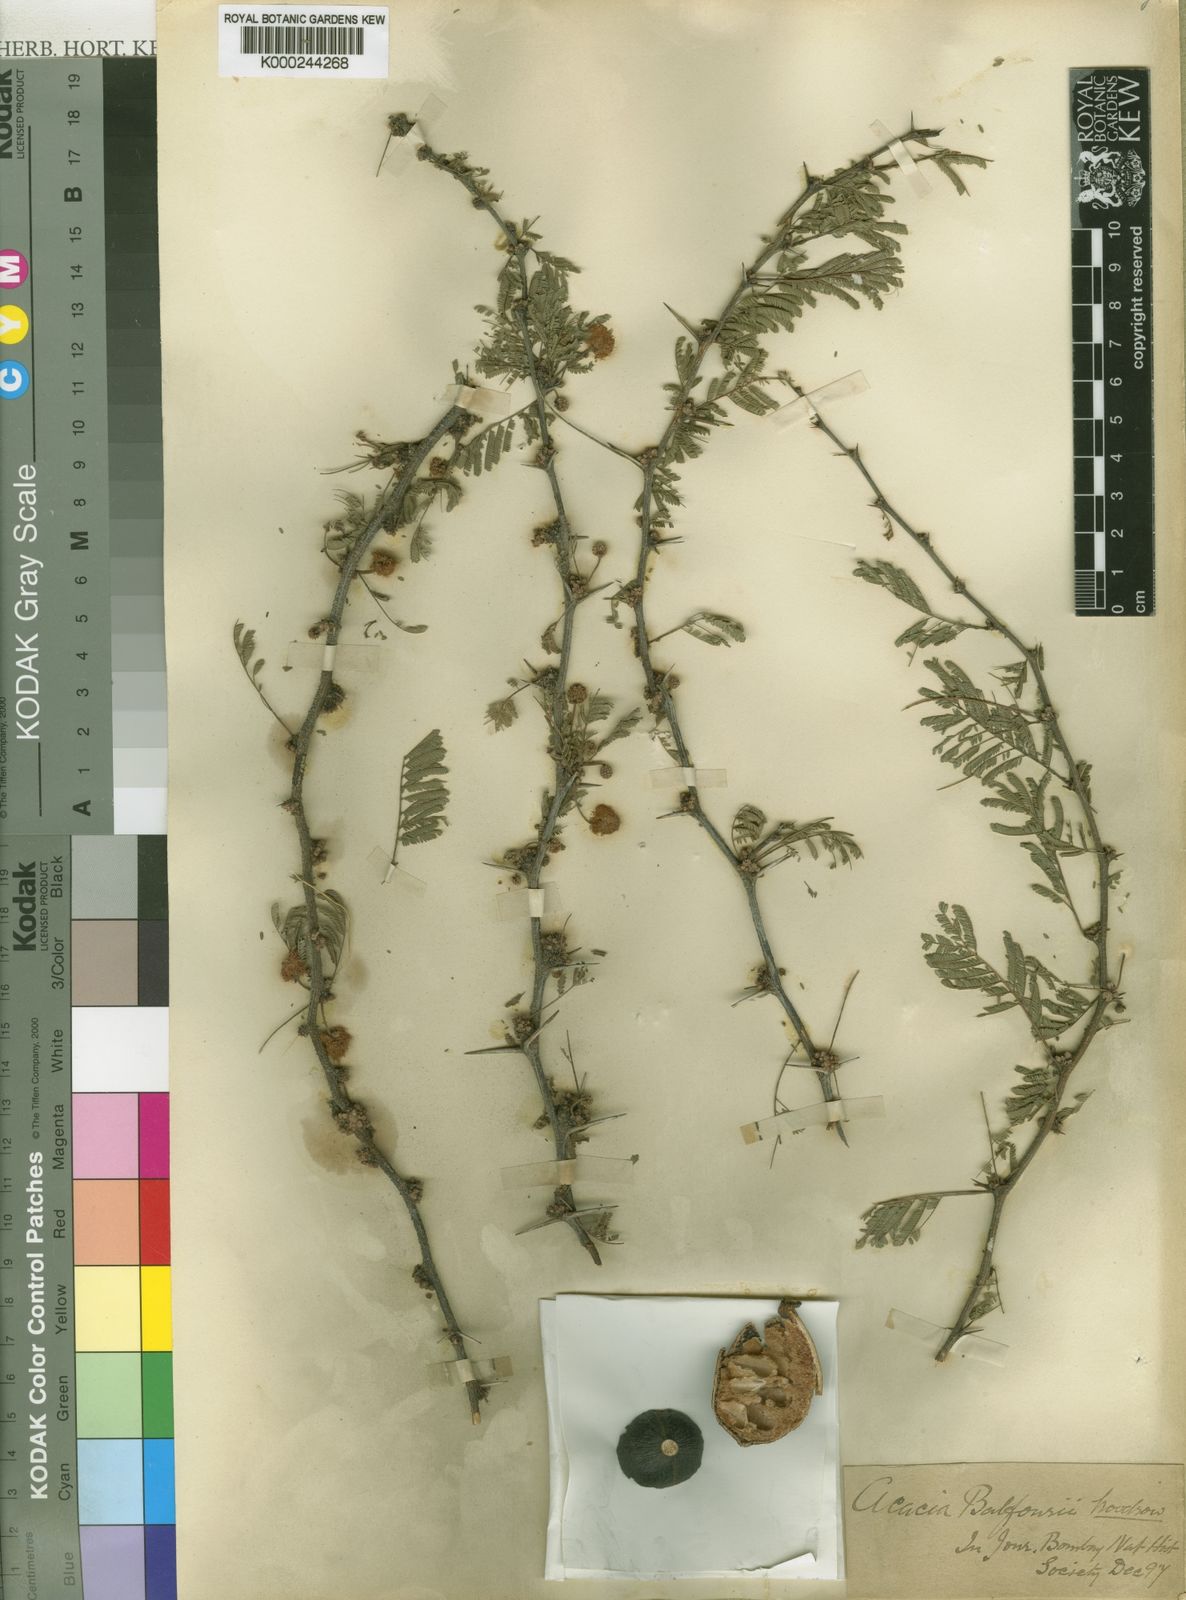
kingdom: Plantae
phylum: Tracheophyta
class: Magnoliopsida
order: Fabales
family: Fabaceae
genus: Vachellia
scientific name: Vachellia edgeworthii
